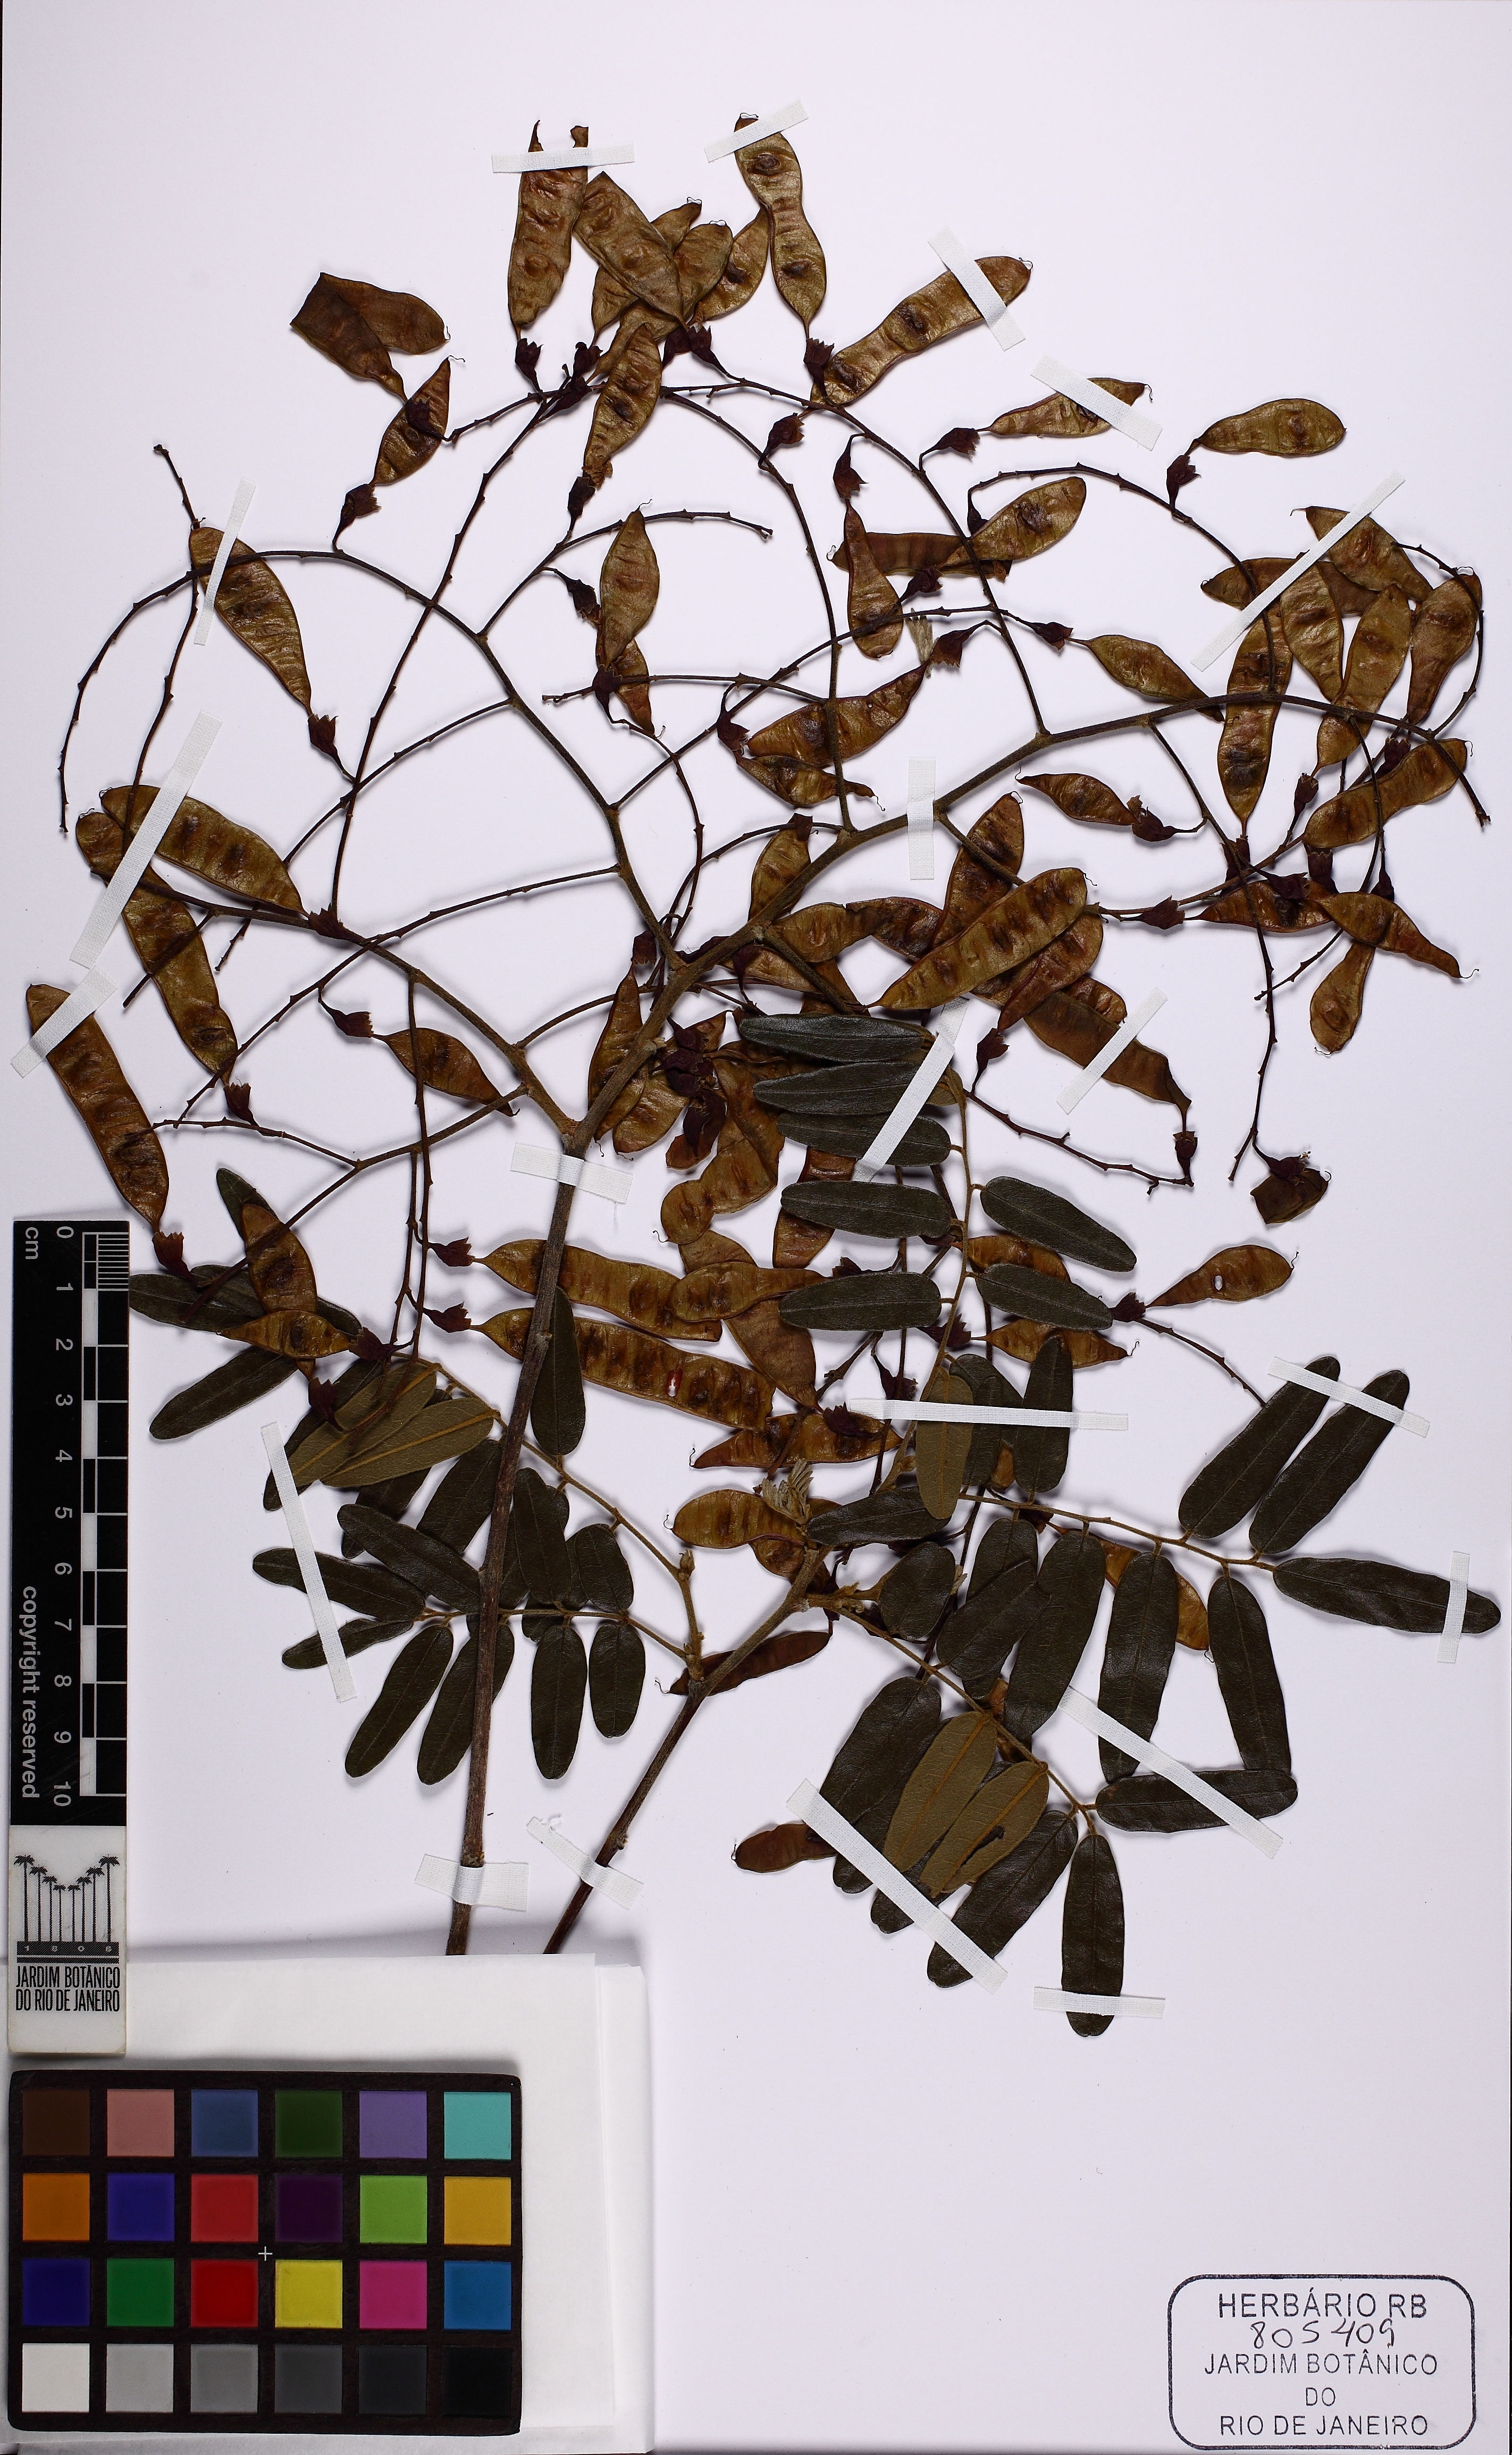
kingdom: Plantae
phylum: Tracheophyta
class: Magnoliopsida
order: Fabales
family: Fabaceae
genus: Bowdichia
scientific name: Bowdichia virgilioides
